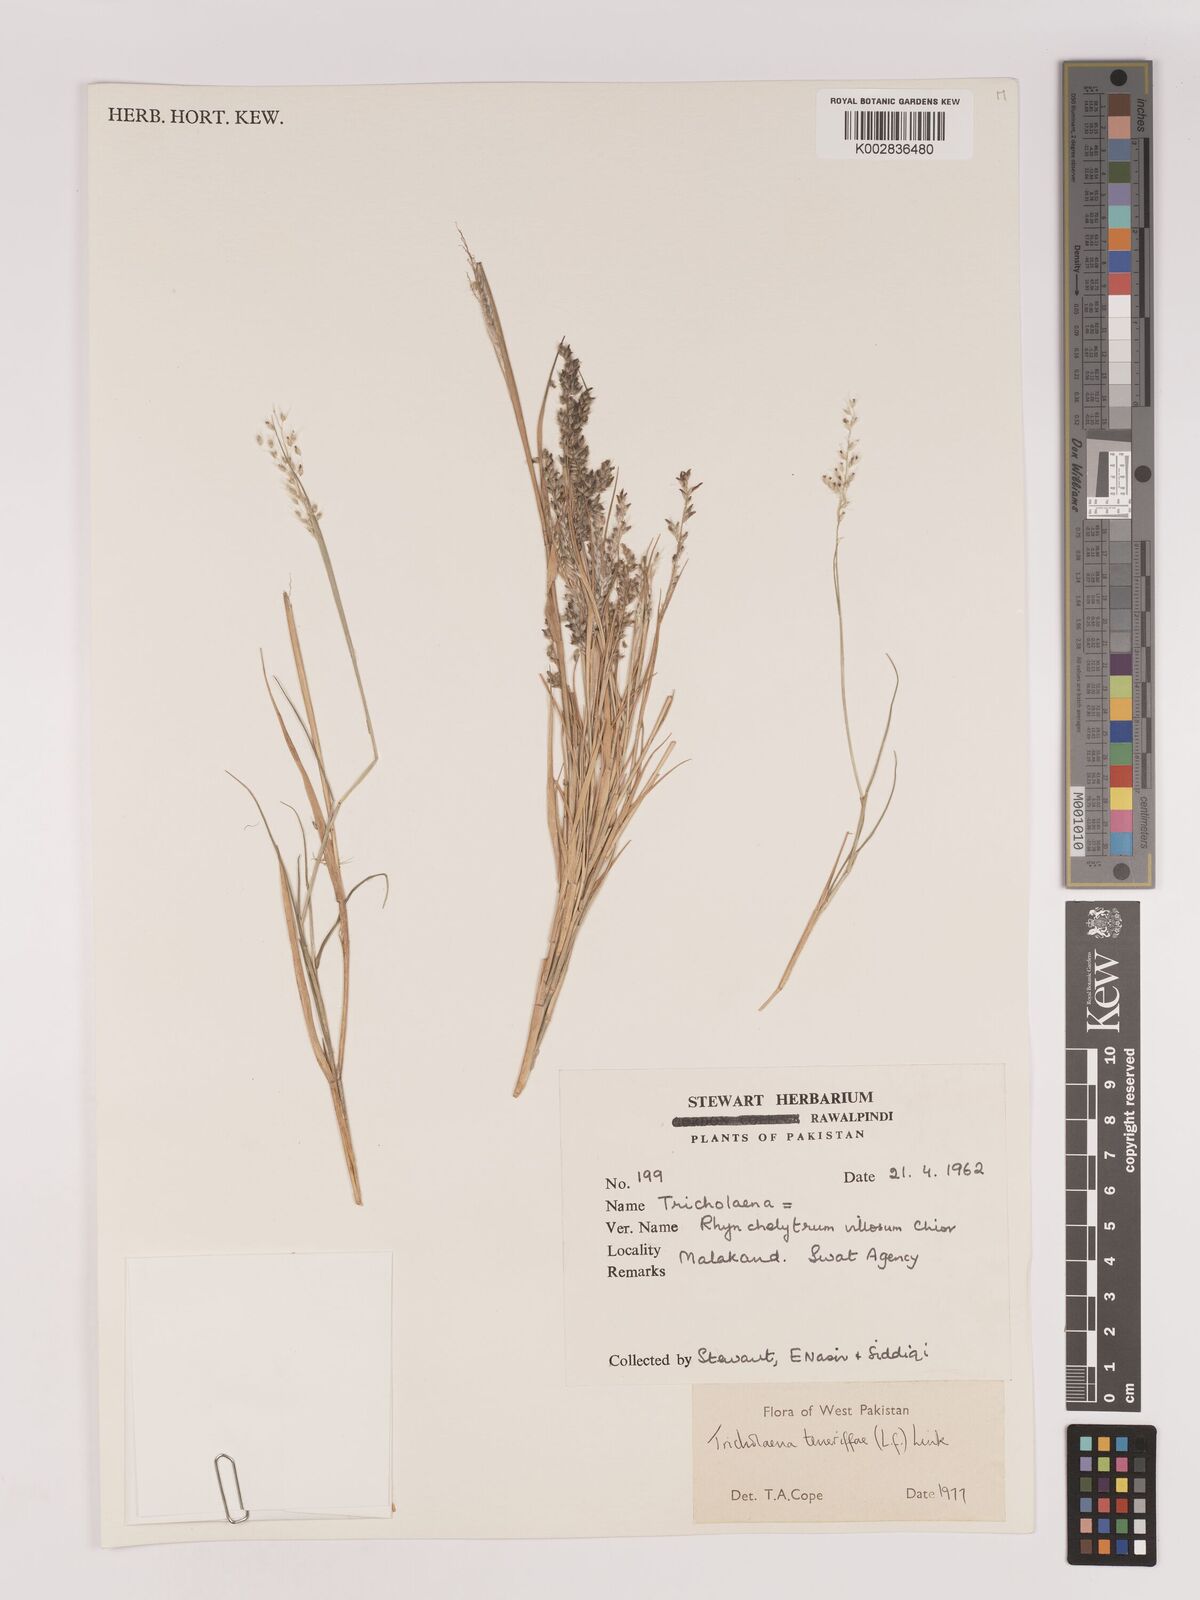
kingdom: Plantae
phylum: Tracheophyta
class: Liliopsida
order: Poales
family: Poaceae
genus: Tricholaena
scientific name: Tricholaena teneriffae
